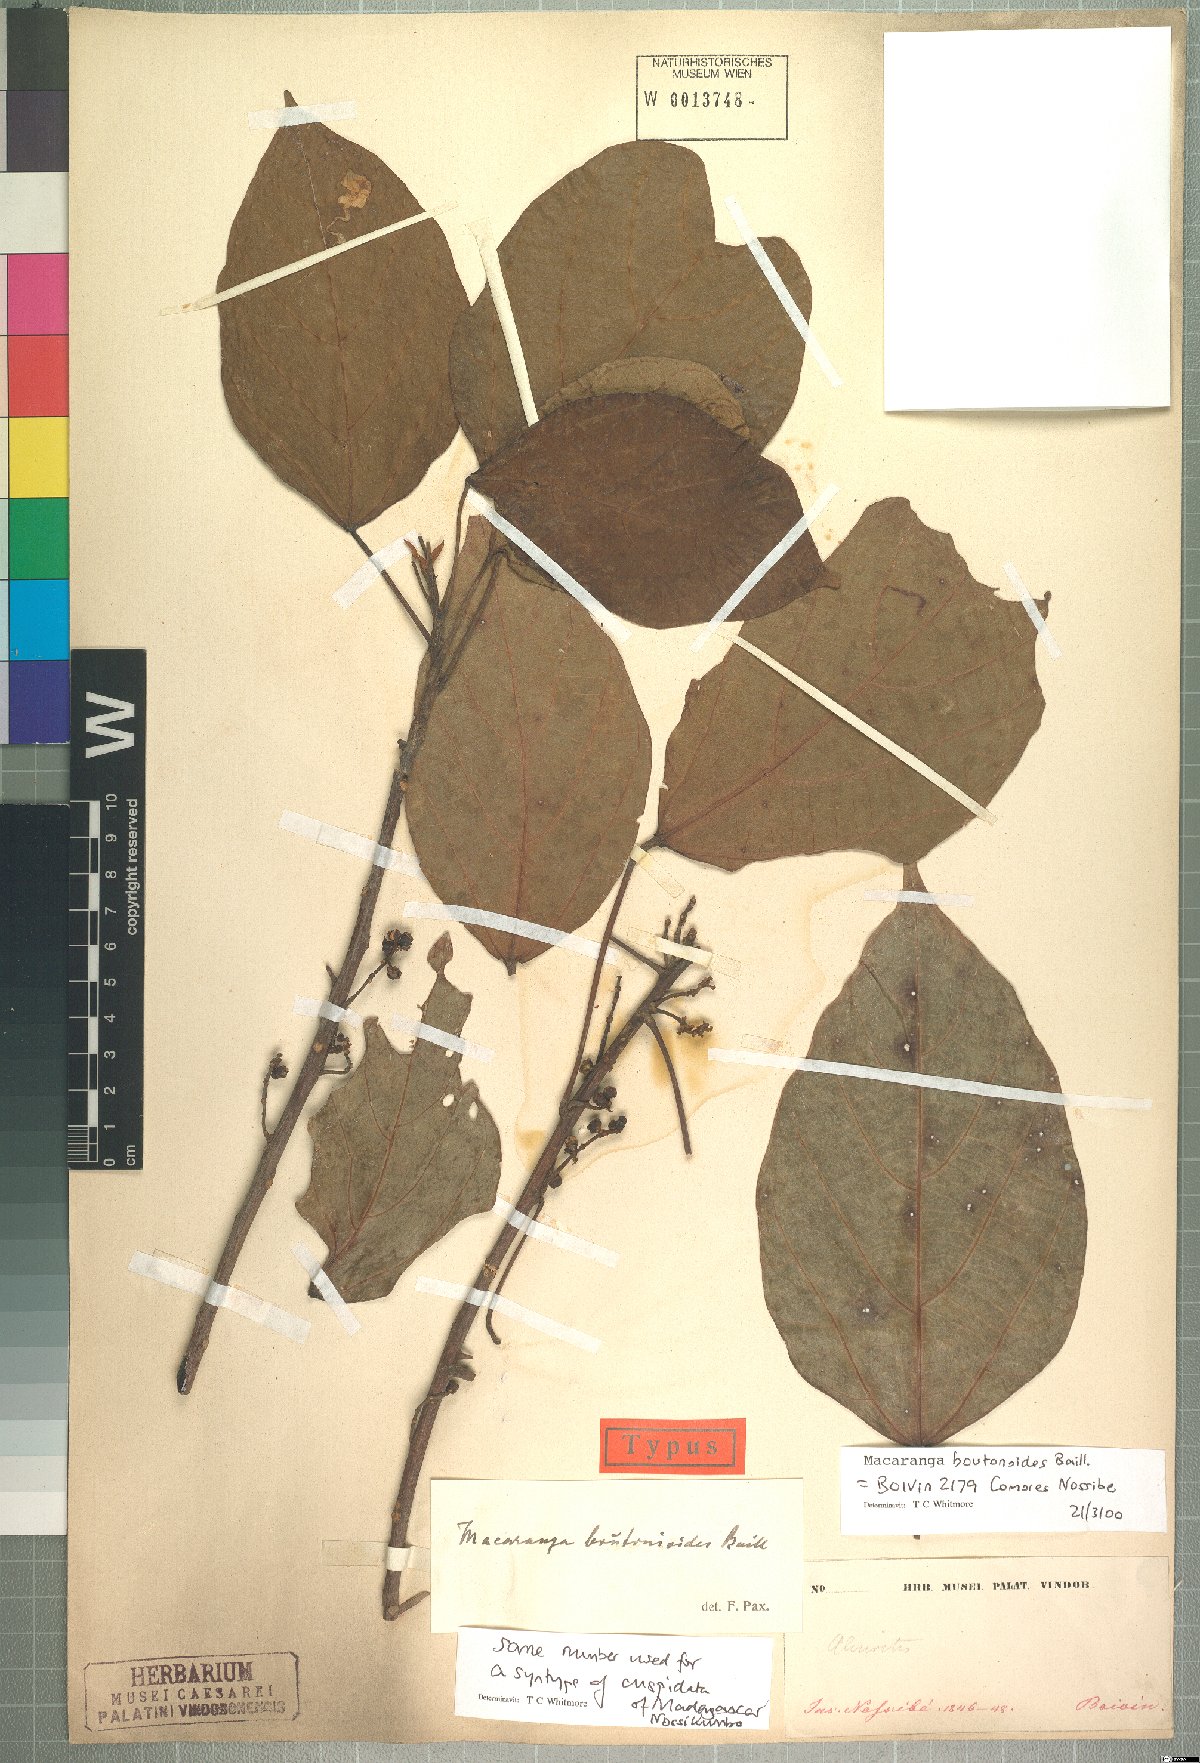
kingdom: Plantae
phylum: Tracheophyta
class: Magnoliopsida
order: Malpighiales
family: Euphorbiaceae
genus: Macaranga
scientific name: Macaranga boutonioides
